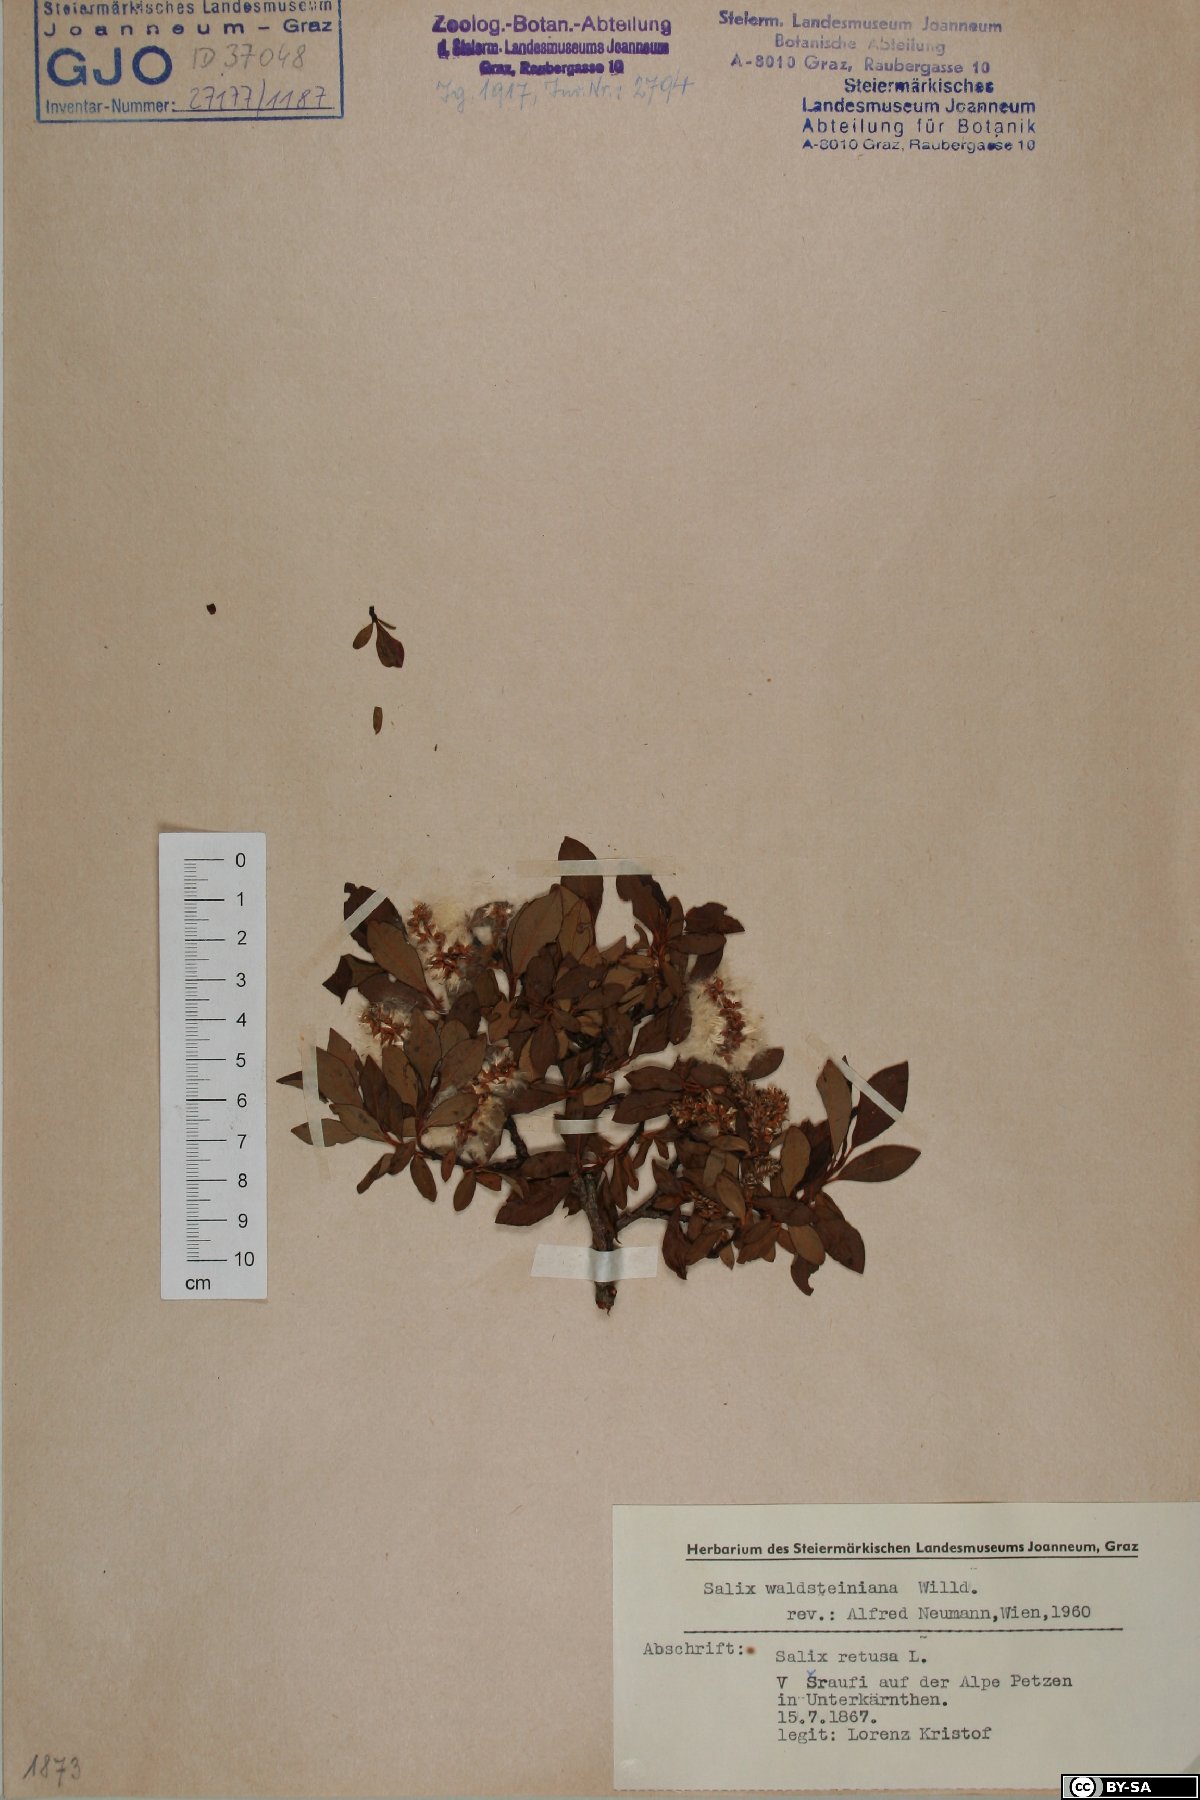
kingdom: Plantae
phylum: Tracheophyta
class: Magnoliopsida
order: Malpighiales
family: Salicaceae
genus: Salix
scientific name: Salix waldsteiniana
